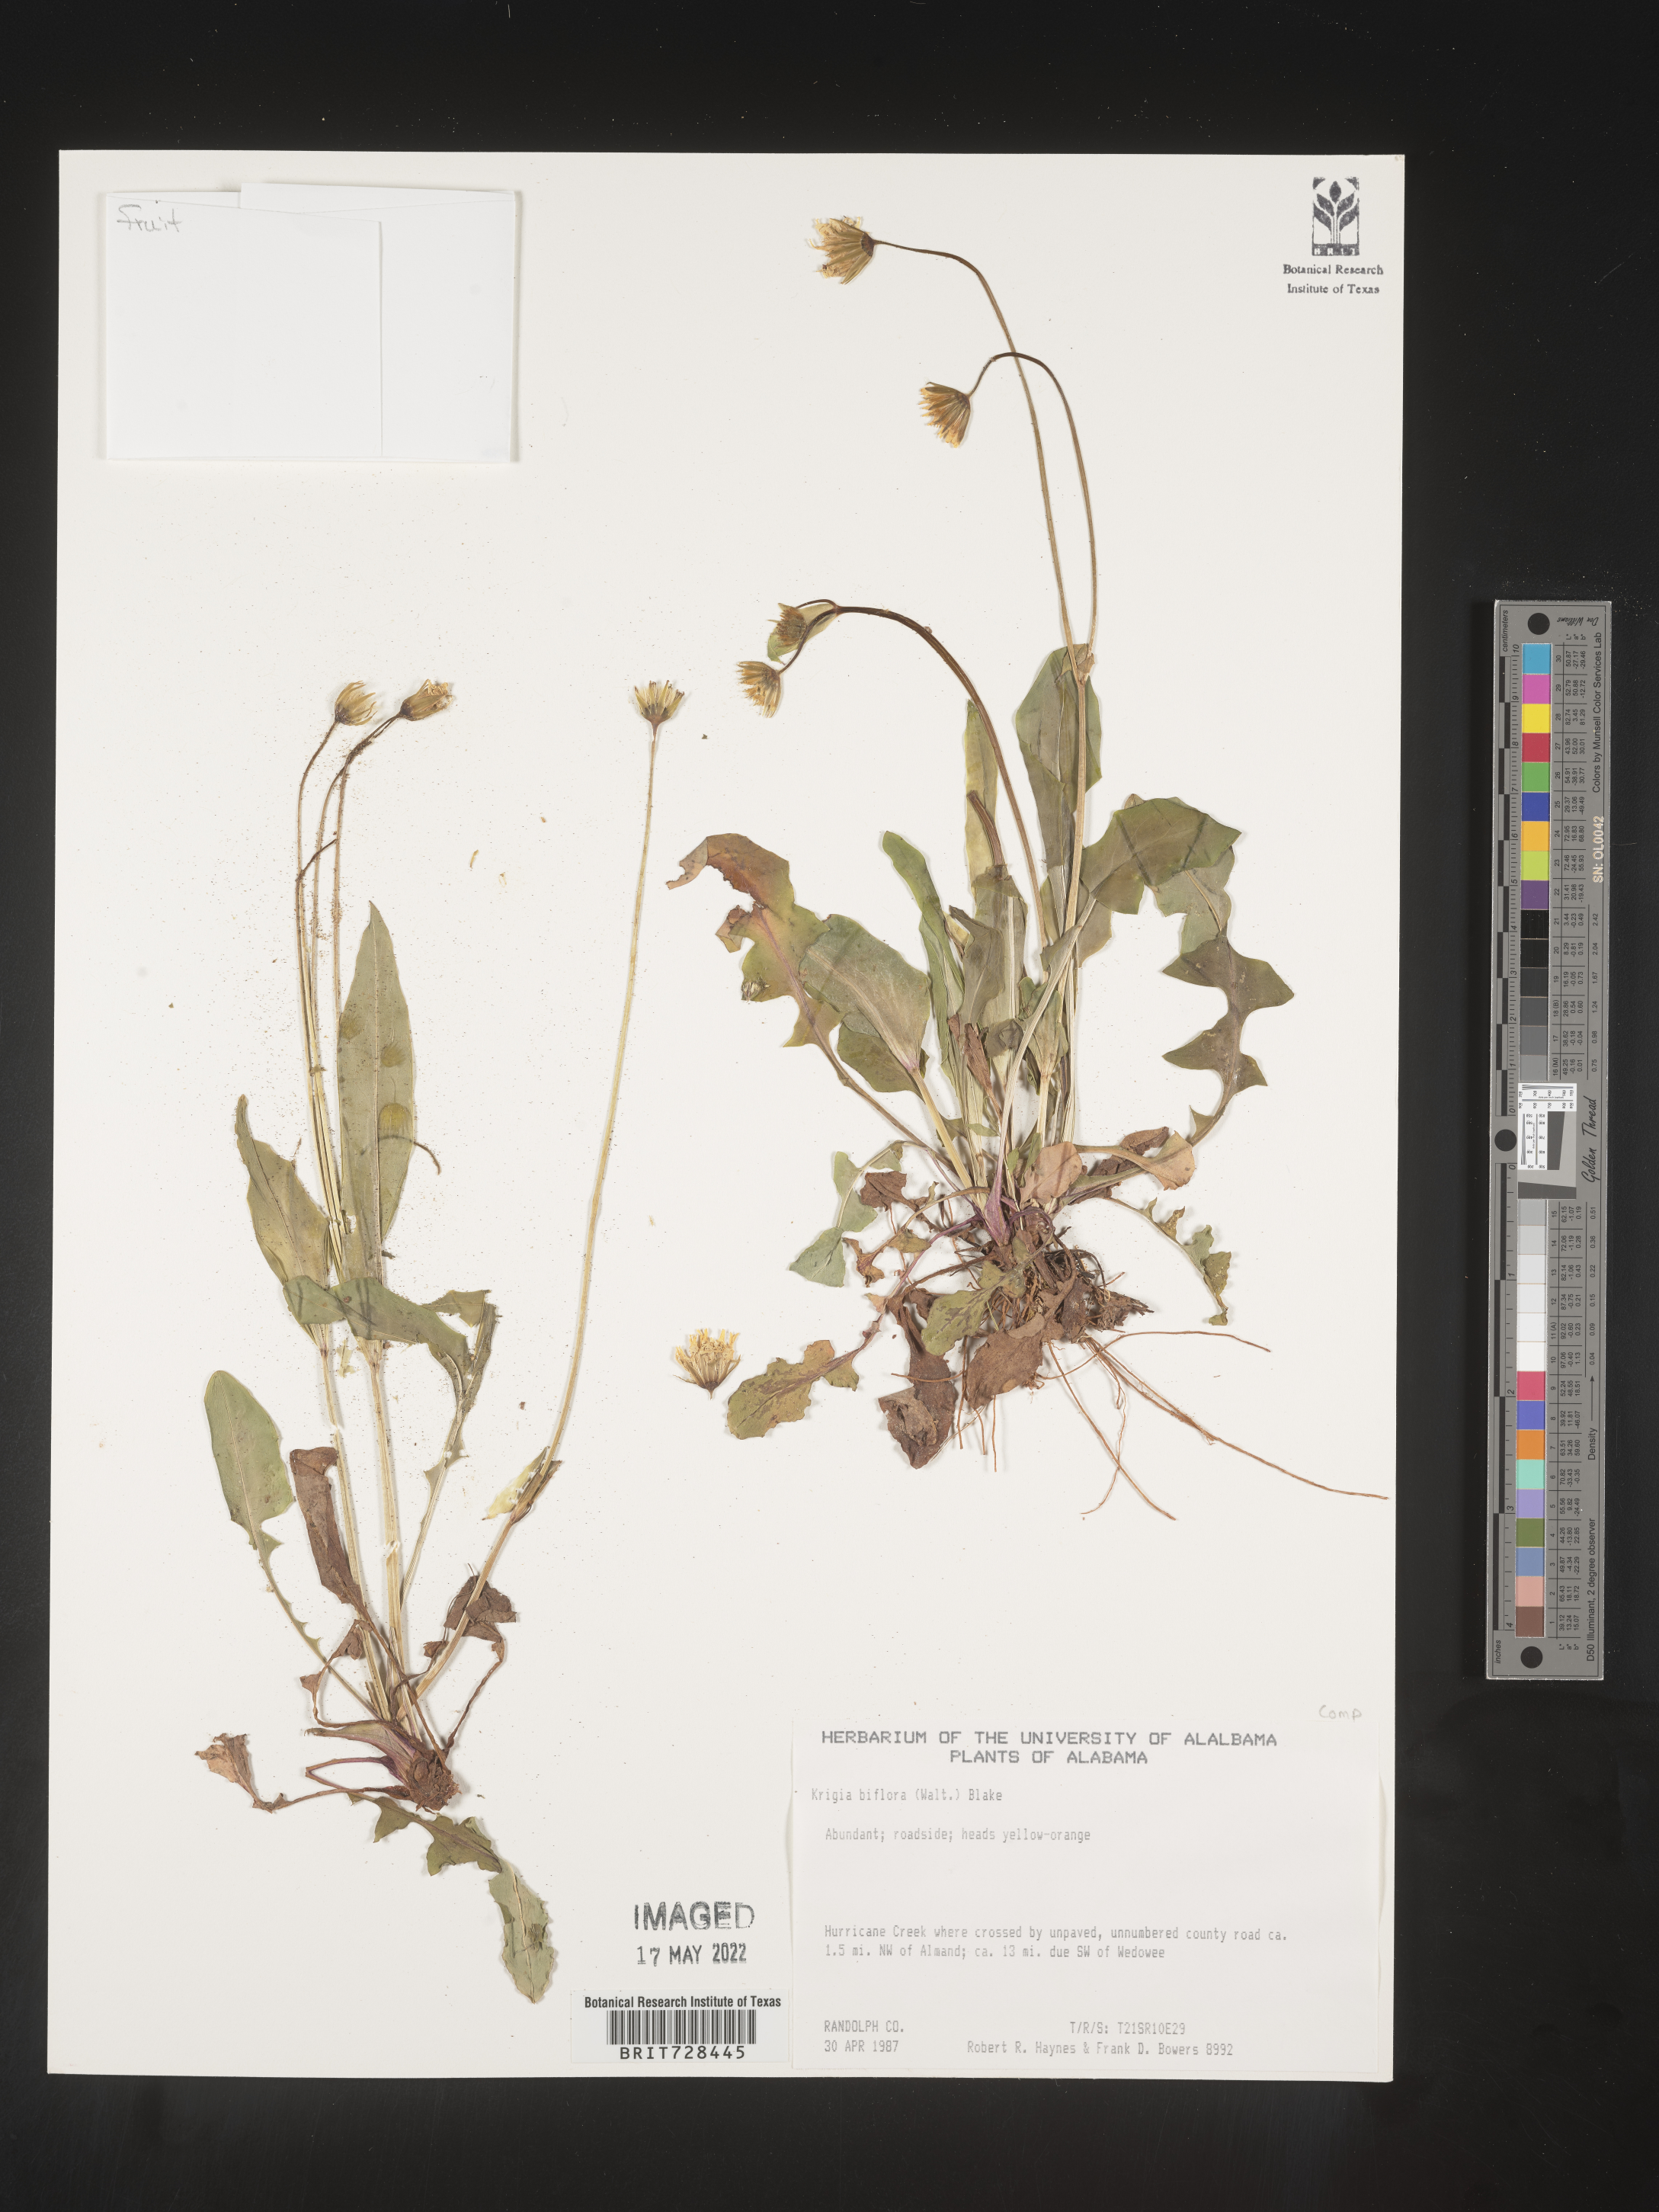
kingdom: Plantae
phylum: Tracheophyta
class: Magnoliopsida
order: Asterales
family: Asteraceae
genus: Krigia
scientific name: Krigia biflora
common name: Orange dwarf-dandelion
